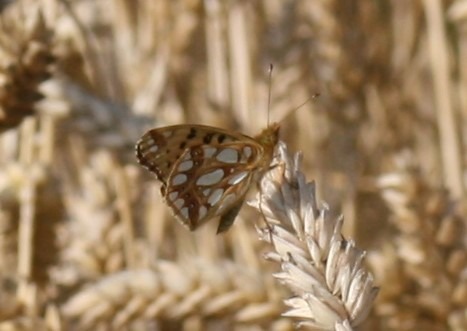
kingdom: Animalia
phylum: Arthropoda
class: Insecta
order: Lepidoptera
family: Nymphalidae
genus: Issoria
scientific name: Issoria lathonia
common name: Storplettet perlemorsommerfugl
